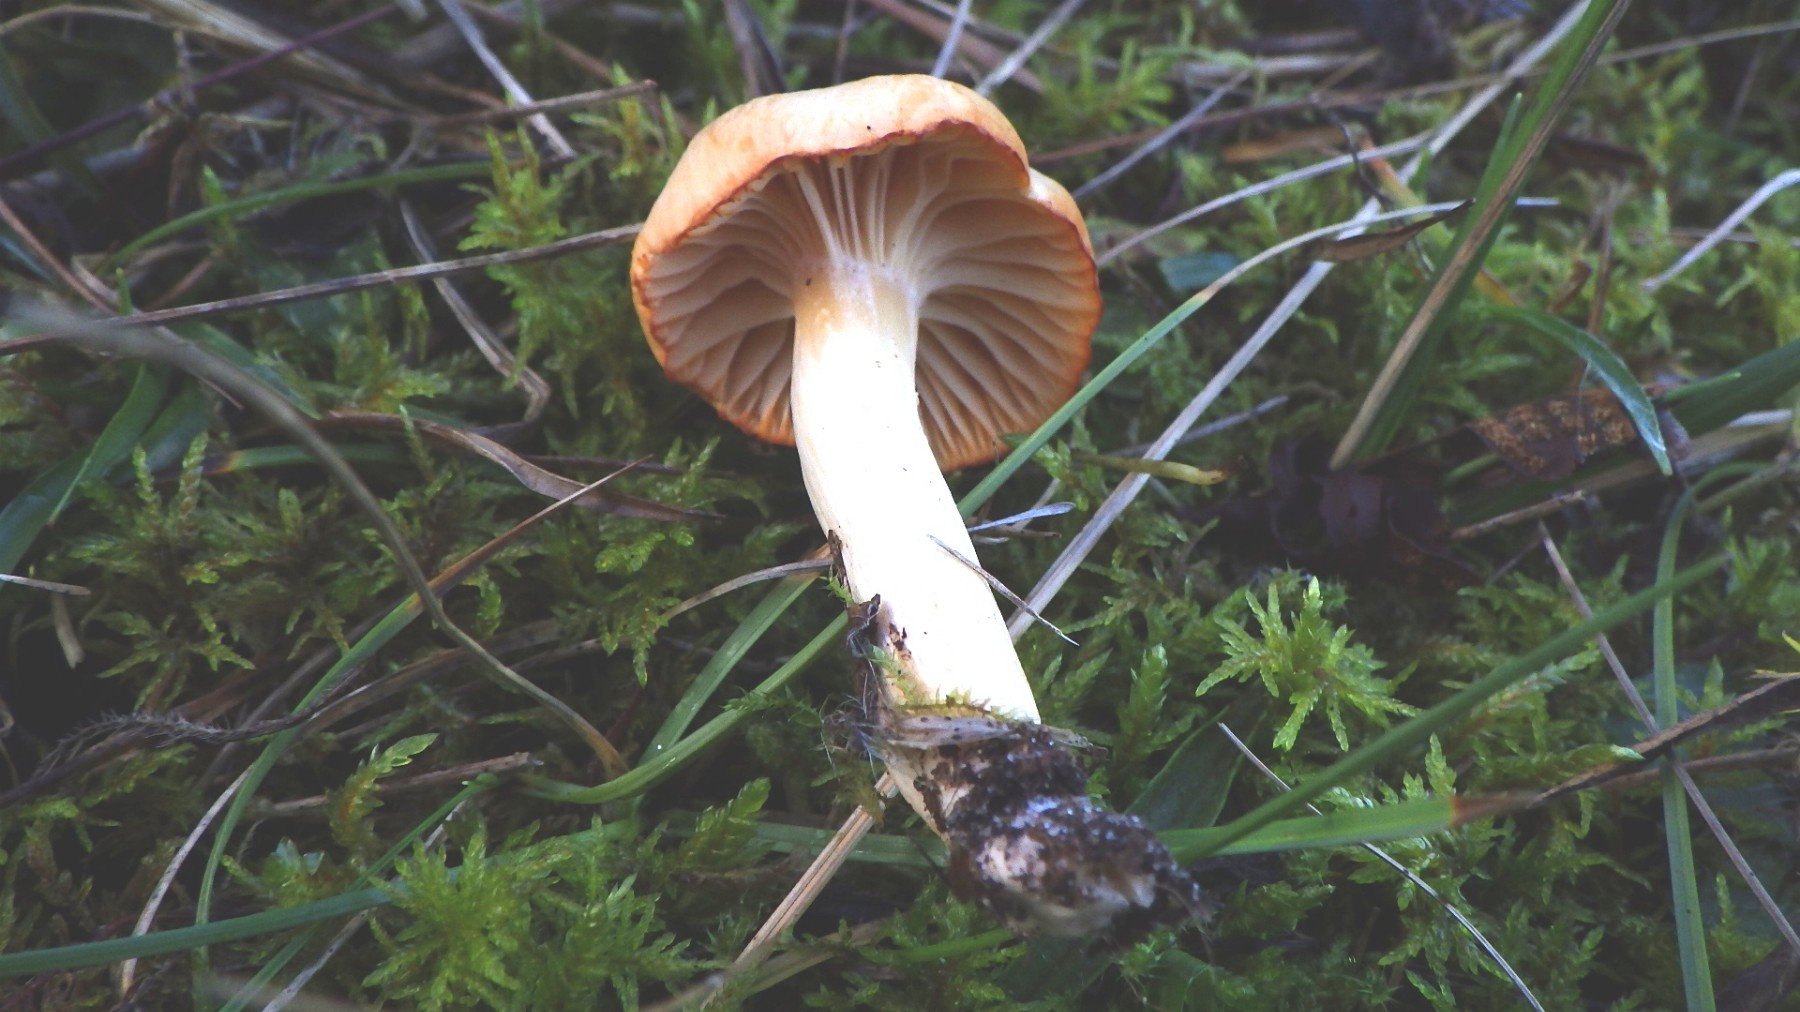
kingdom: Fungi
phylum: Basidiomycota
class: Agaricomycetes
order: Agaricales
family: Hygrophoraceae
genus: Cuphophyllus
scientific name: Cuphophyllus pratensis
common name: eng-vokshat
